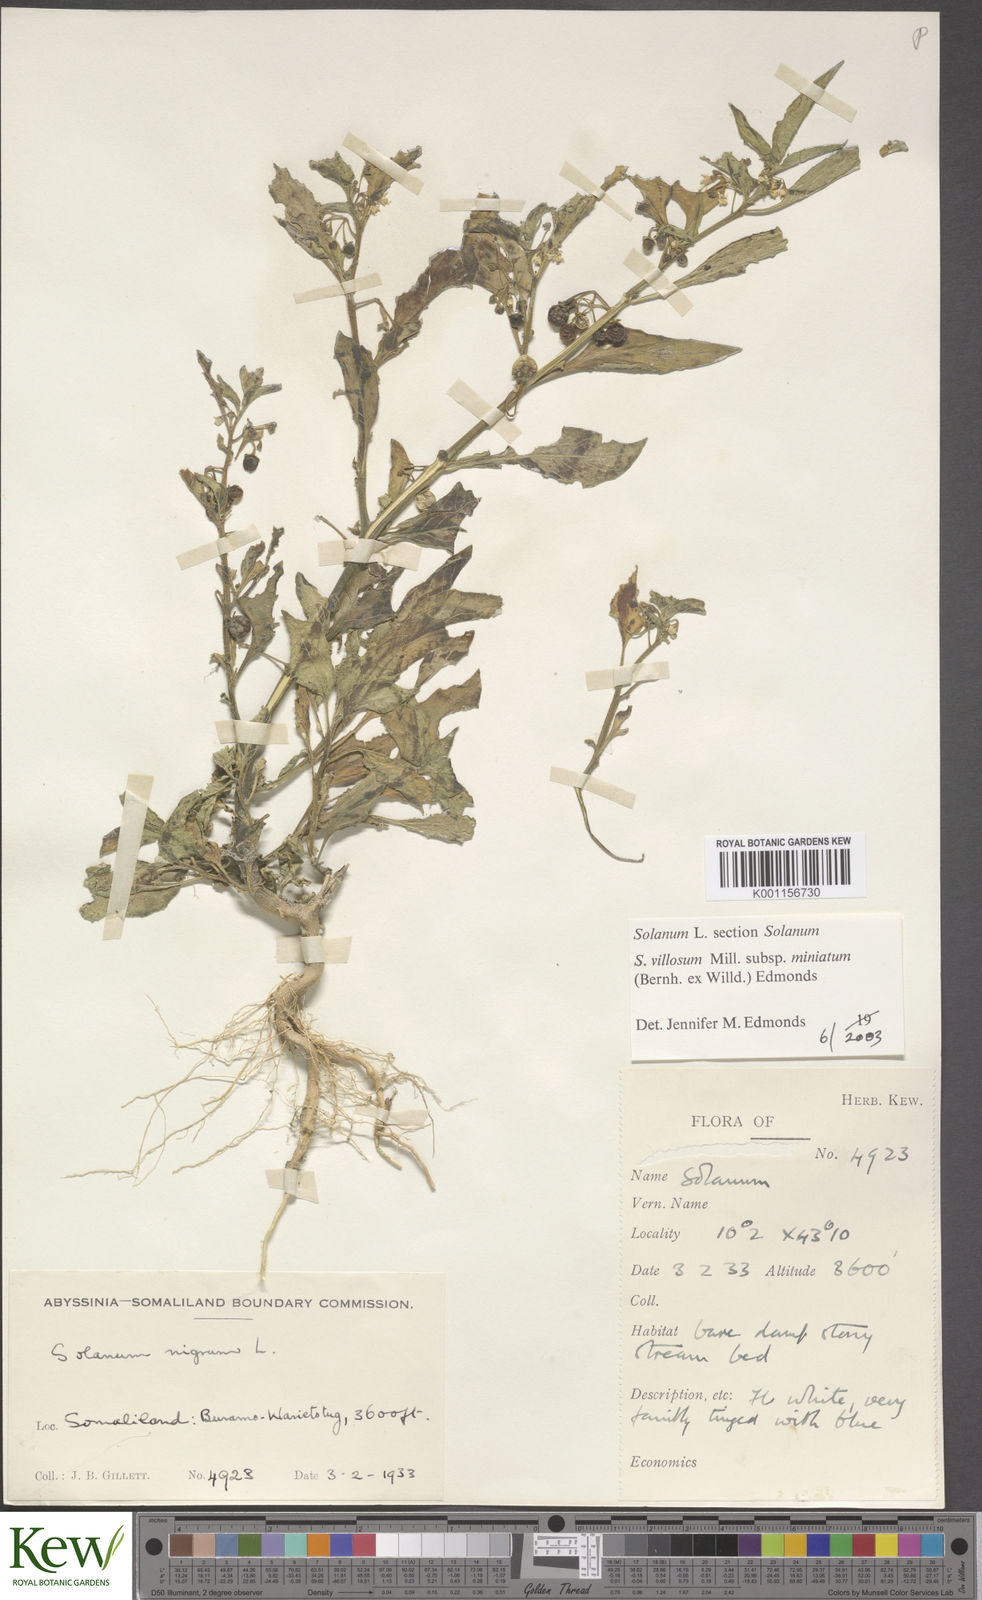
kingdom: Plantae
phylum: Tracheophyta
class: Magnoliopsida
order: Solanales
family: Solanaceae
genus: Solanum
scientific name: Solanum villosum
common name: Red nightshade
